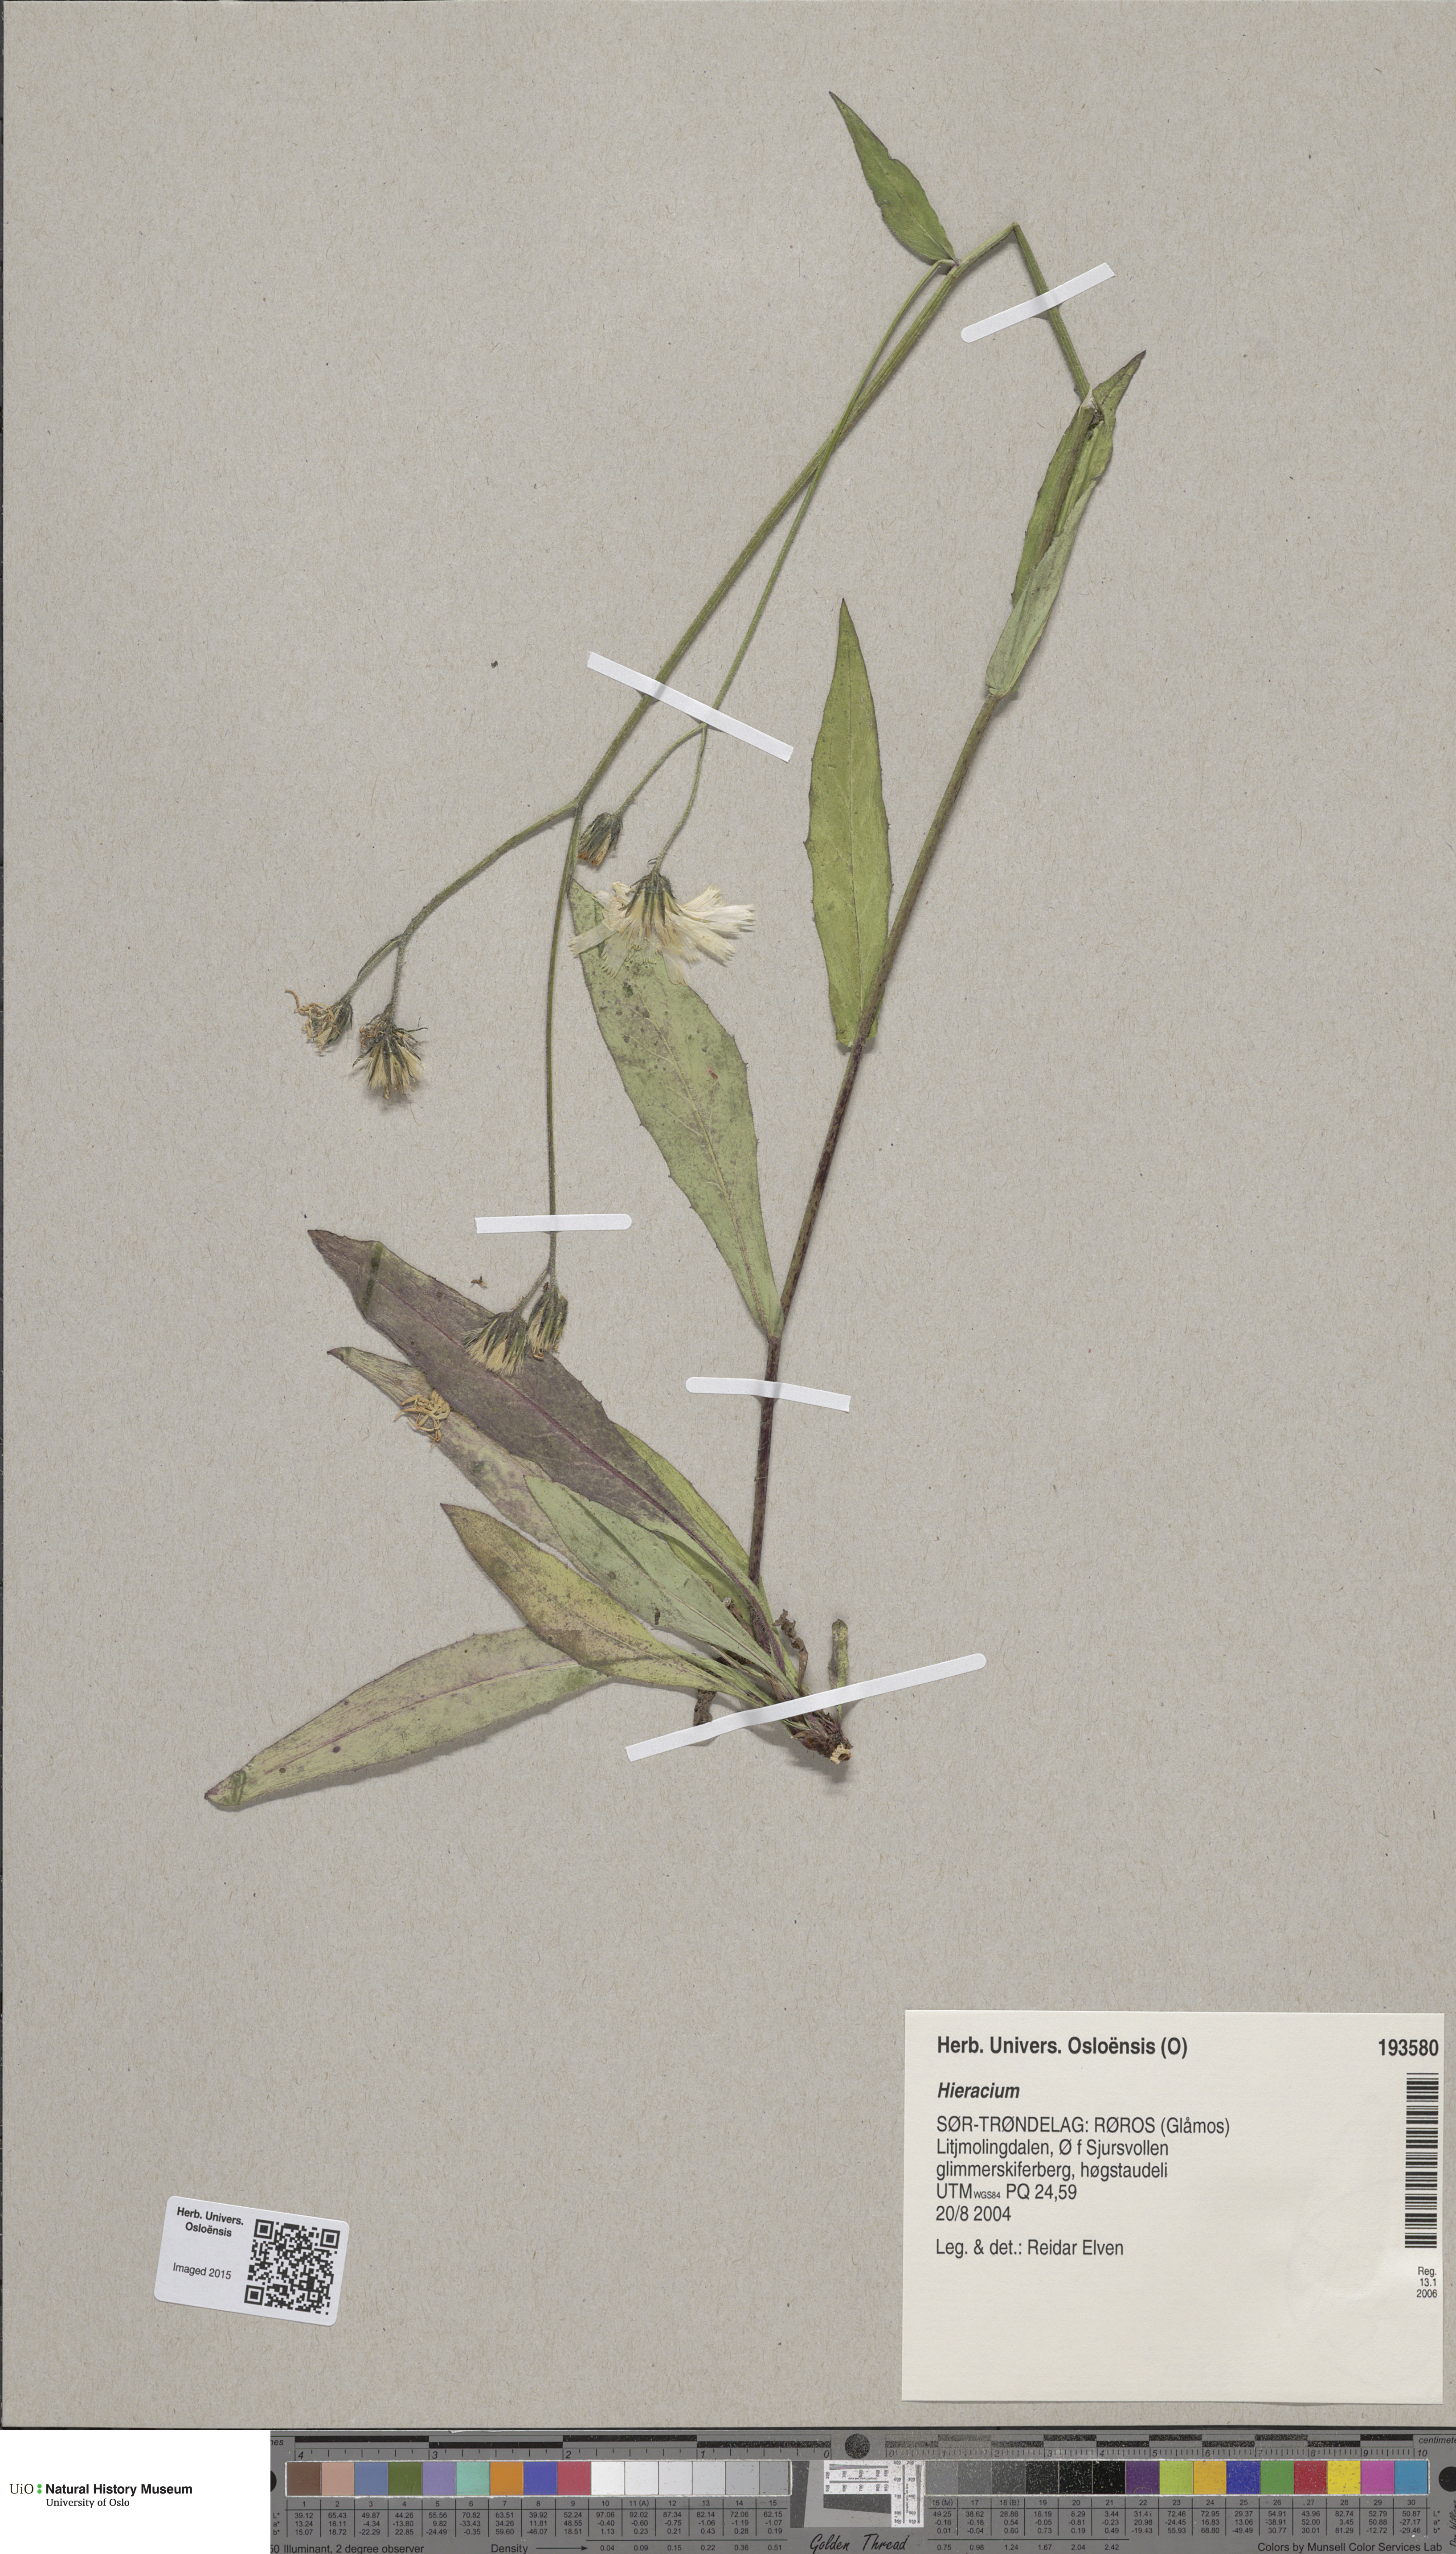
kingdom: Plantae
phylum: Tracheophyta
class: Magnoliopsida
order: Asterales
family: Asteraceae
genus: Hieracium
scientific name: Hieracium
